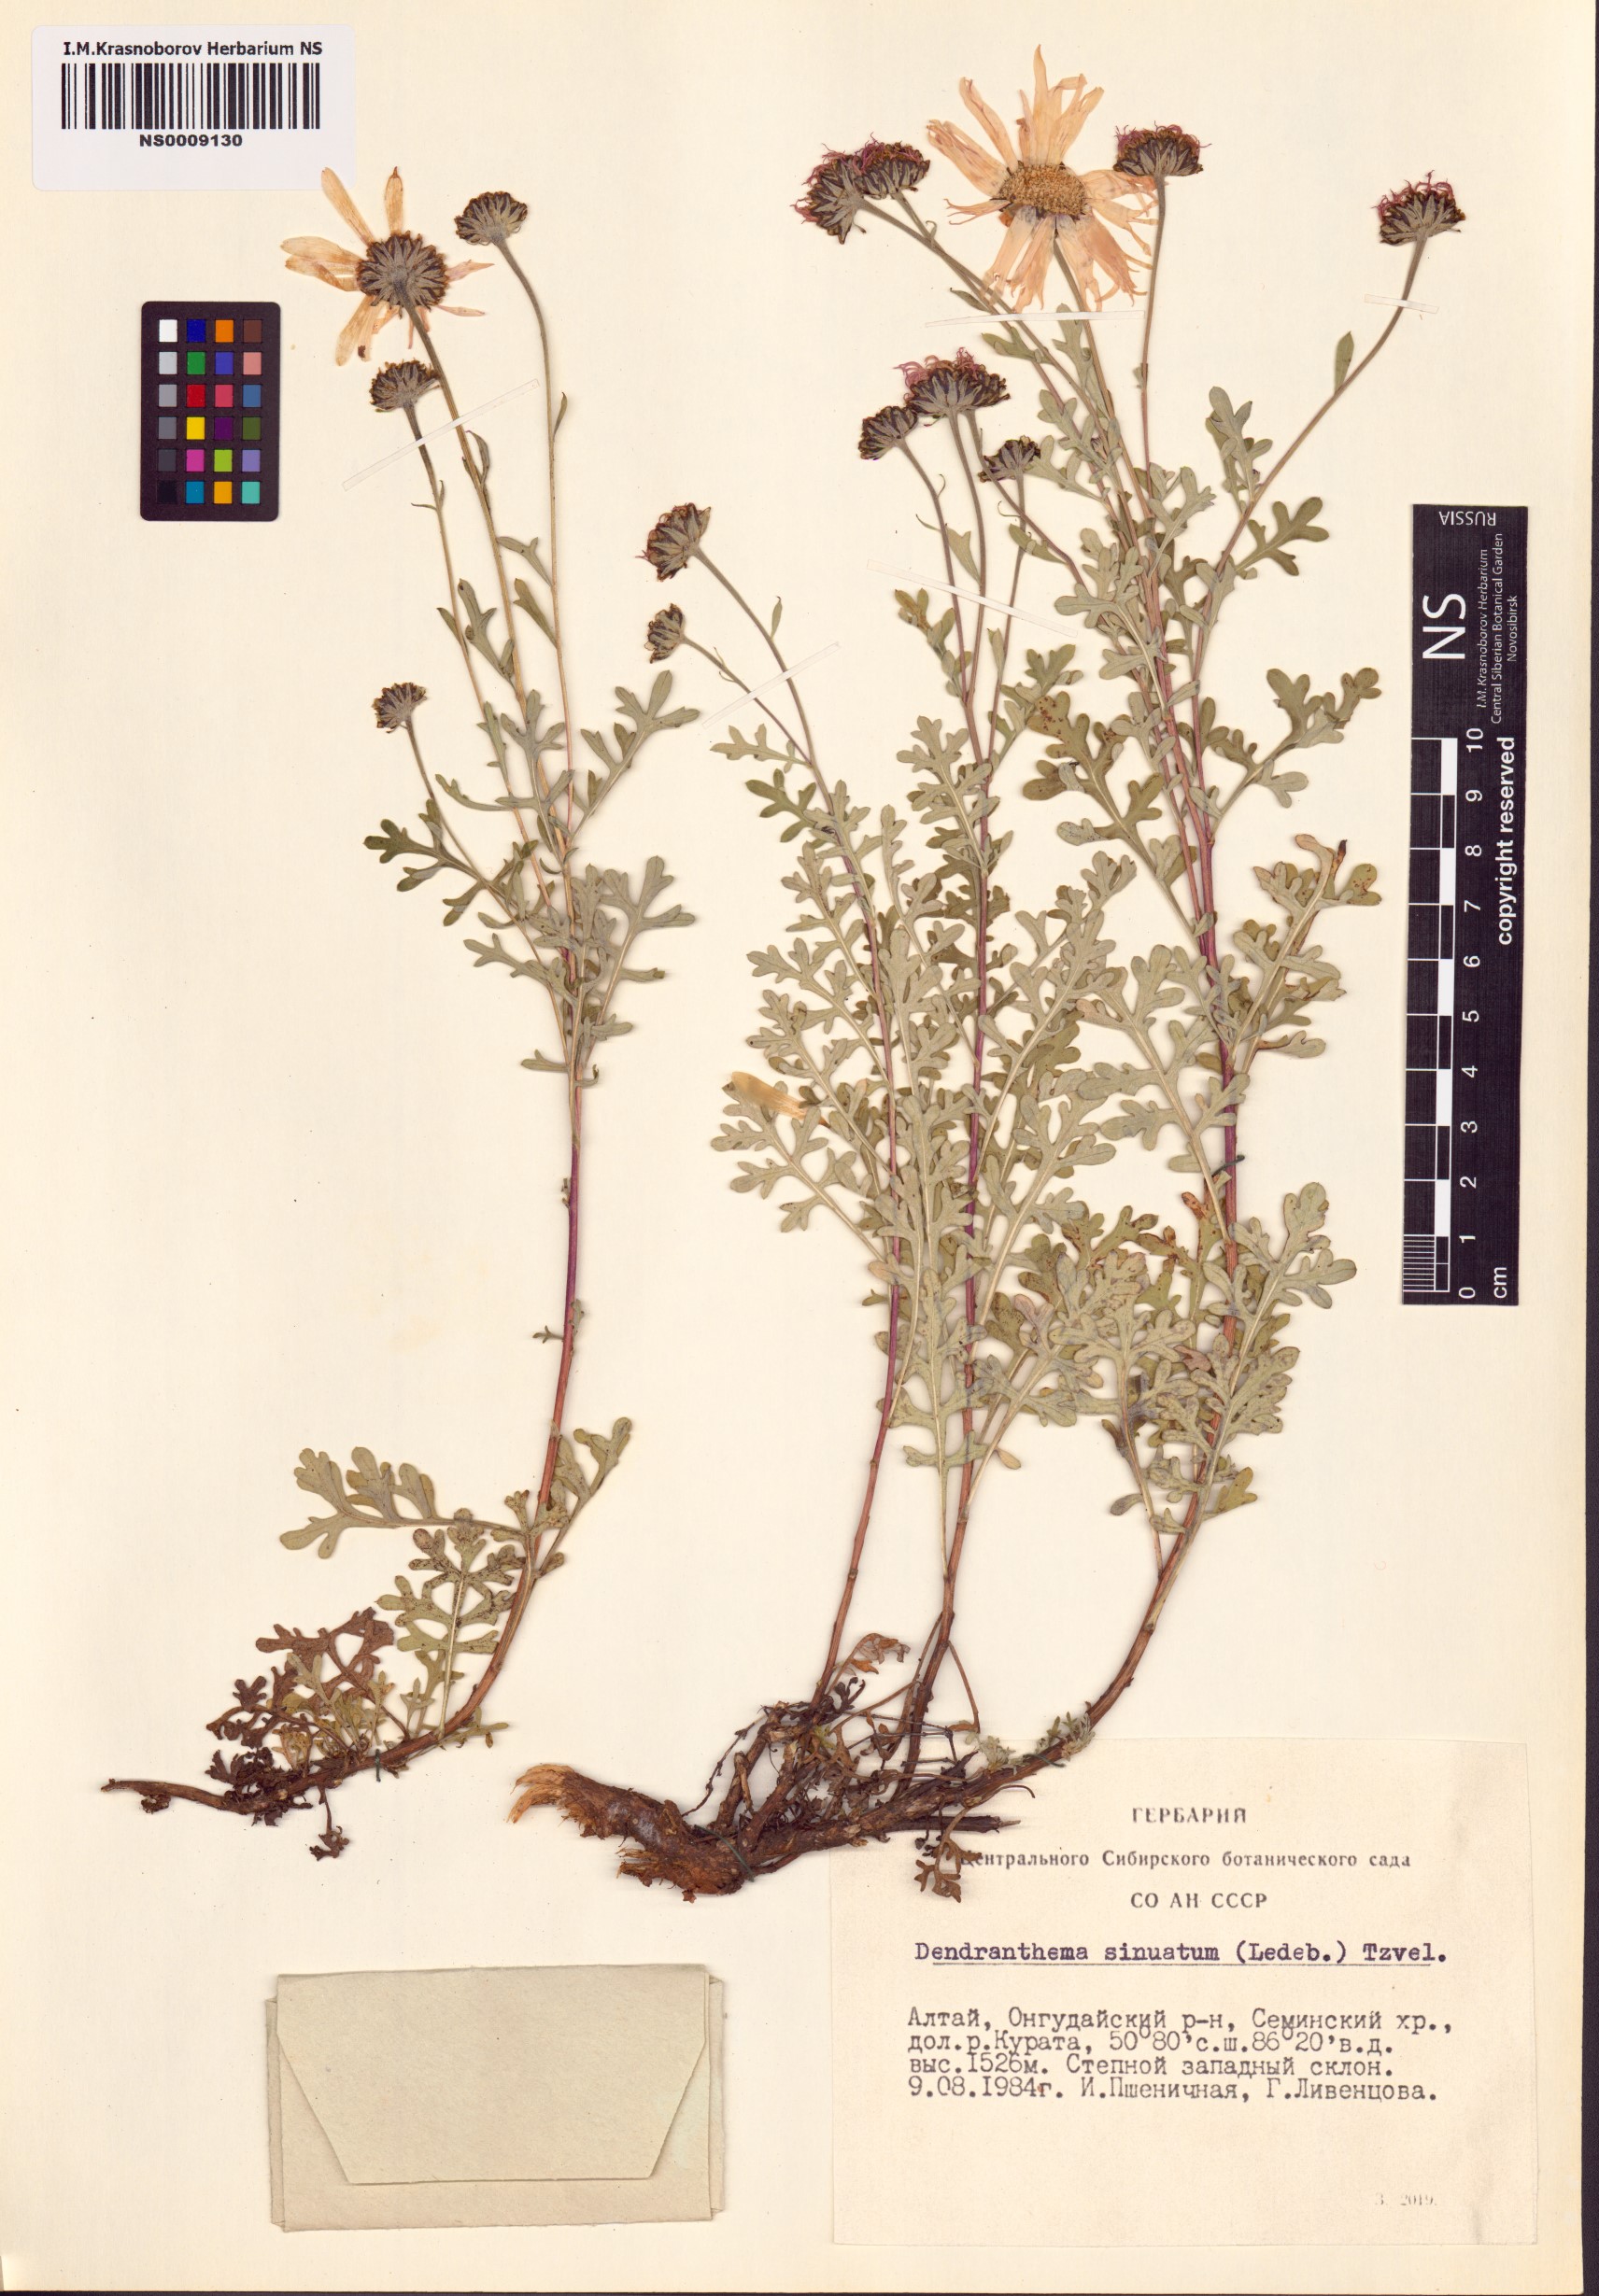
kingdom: Plantae
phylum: Tracheophyta
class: Magnoliopsida
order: Asterales
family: Asteraceae
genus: Chrysanthemum
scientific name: Chrysanthemum sinuatum
